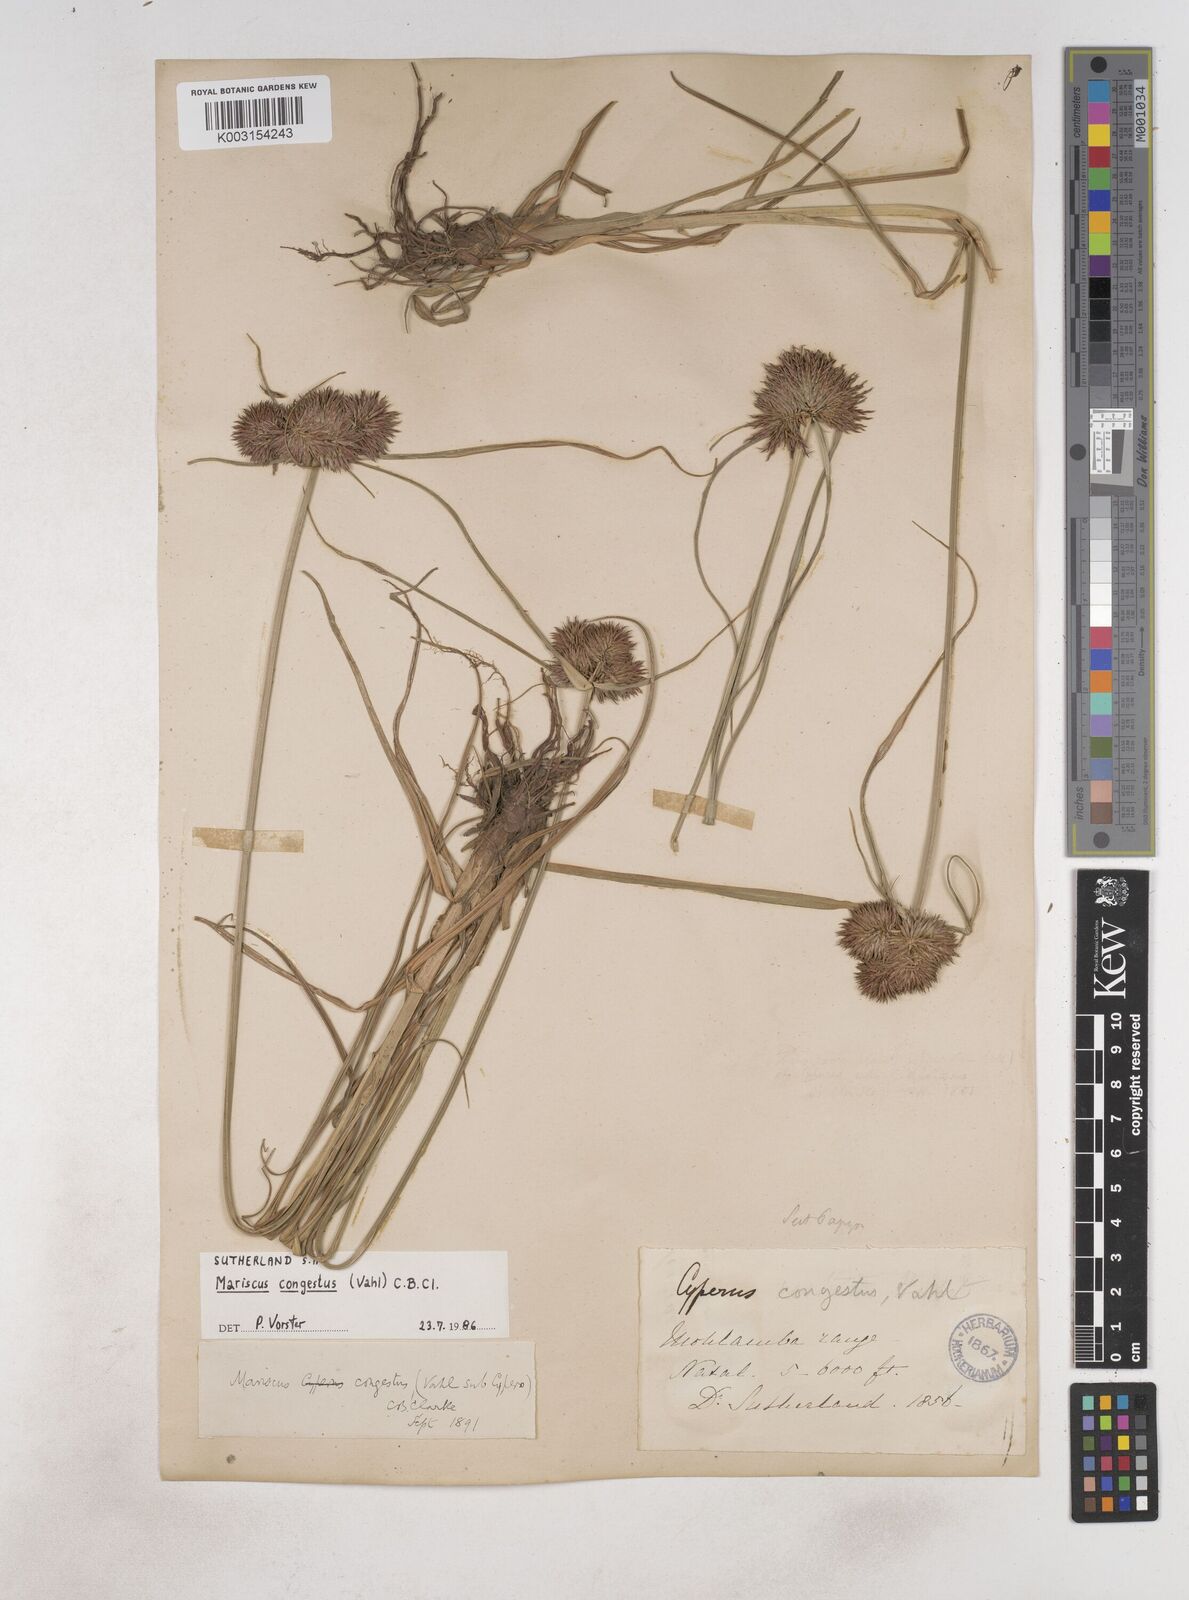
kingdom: Plantae
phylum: Tracheophyta
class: Liliopsida
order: Poales
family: Cyperaceae
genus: Cyperus
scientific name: Cyperus congestus
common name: Dense flat sedge
